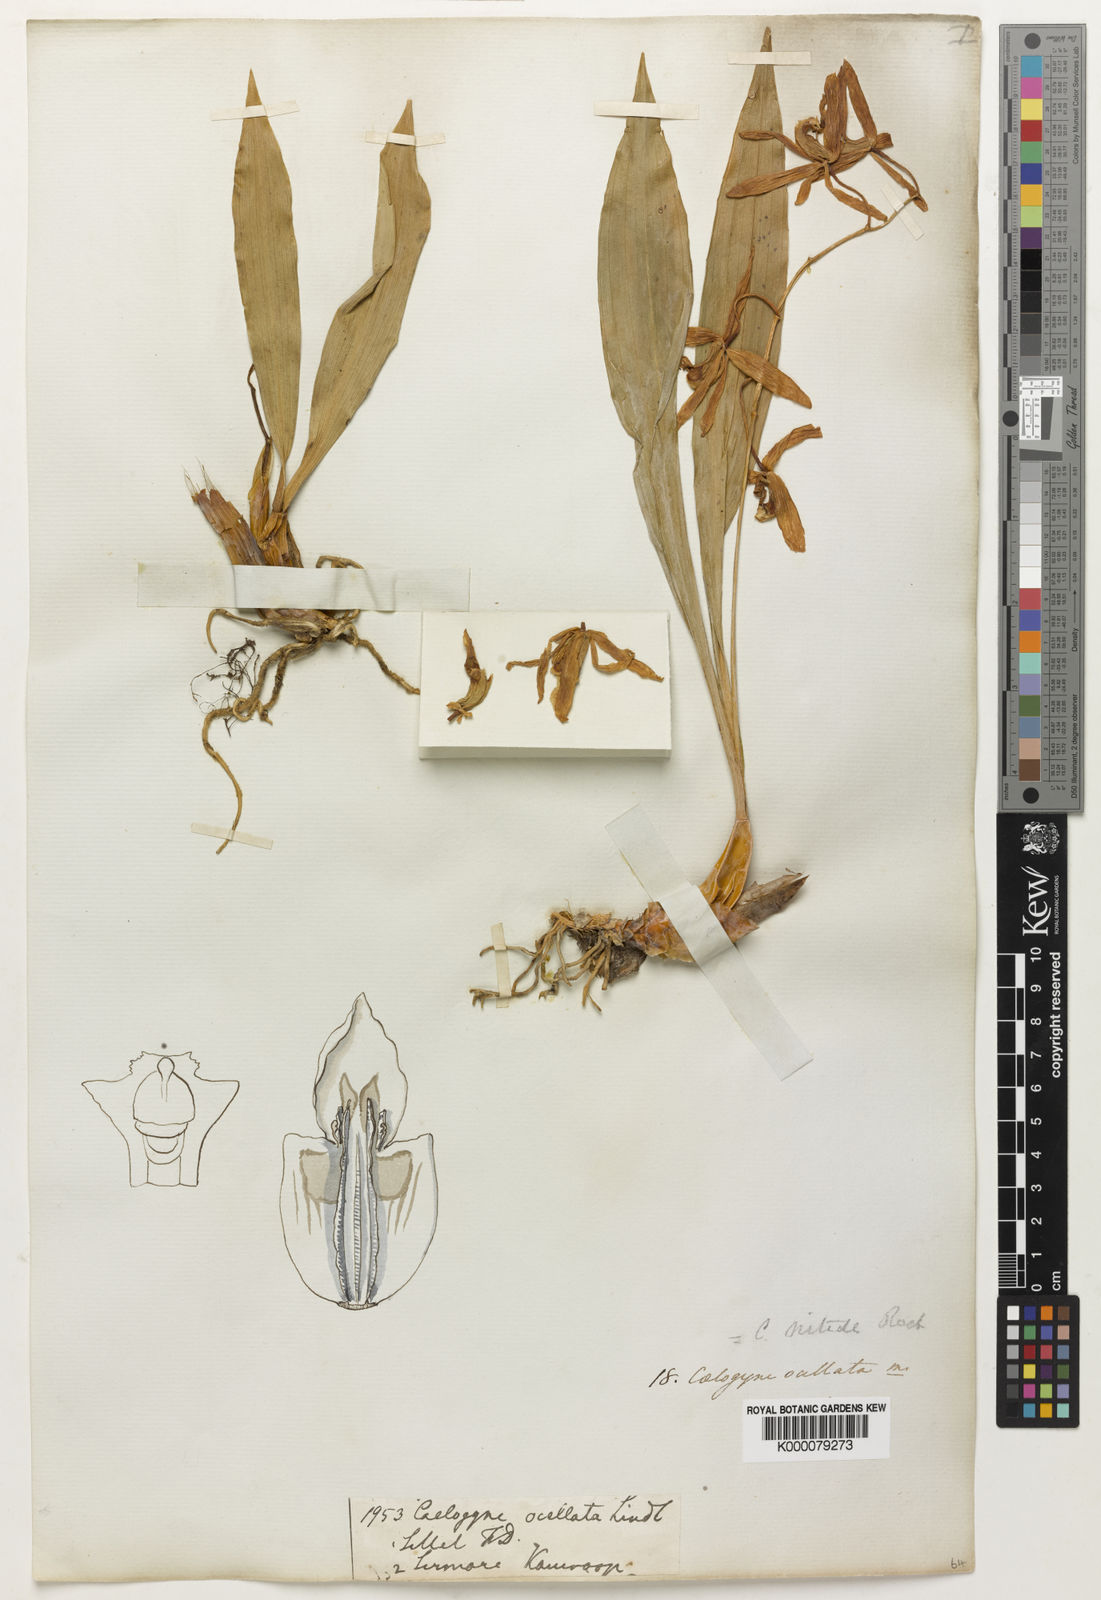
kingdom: Plantae
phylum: Tracheophyta
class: Liliopsida
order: Asparagales
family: Orchidaceae
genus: Coelogyne
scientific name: Coelogyne punctulata
